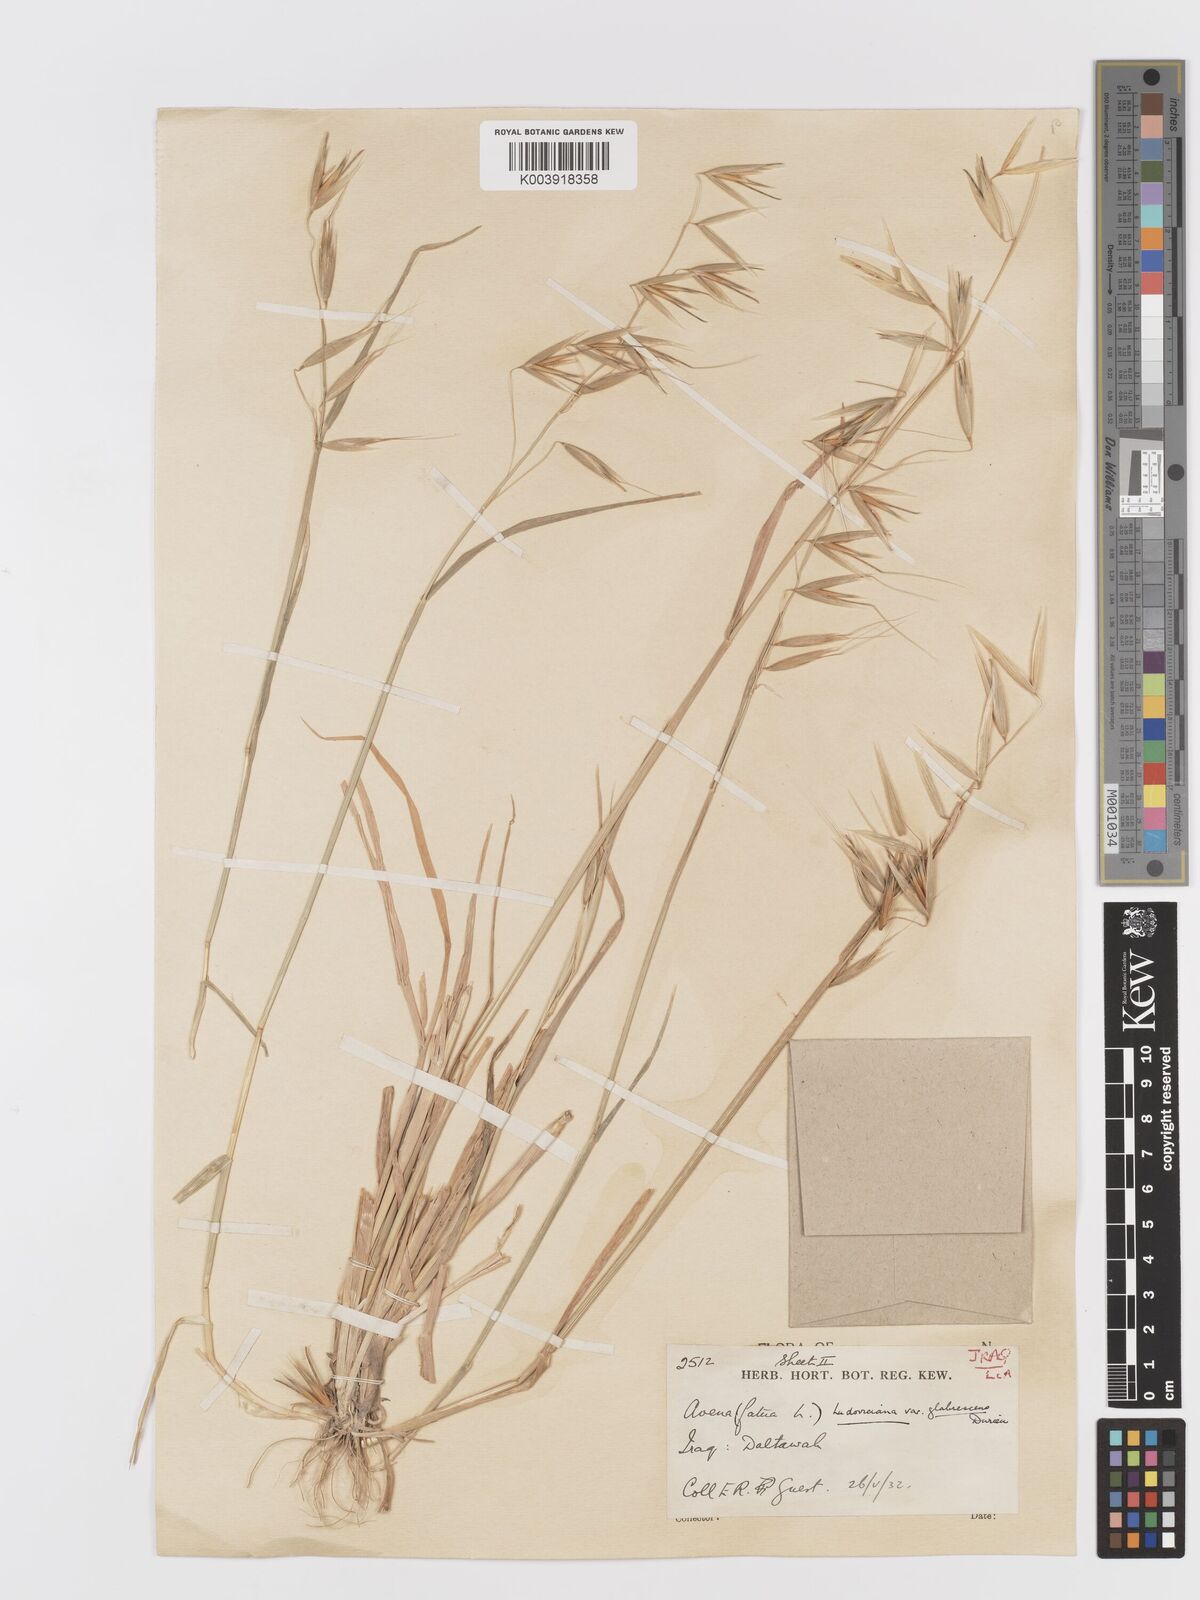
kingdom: Plantae
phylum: Tracheophyta
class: Liliopsida
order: Poales
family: Poaceae
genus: Avena
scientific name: Avena sterilis
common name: Animated oat
